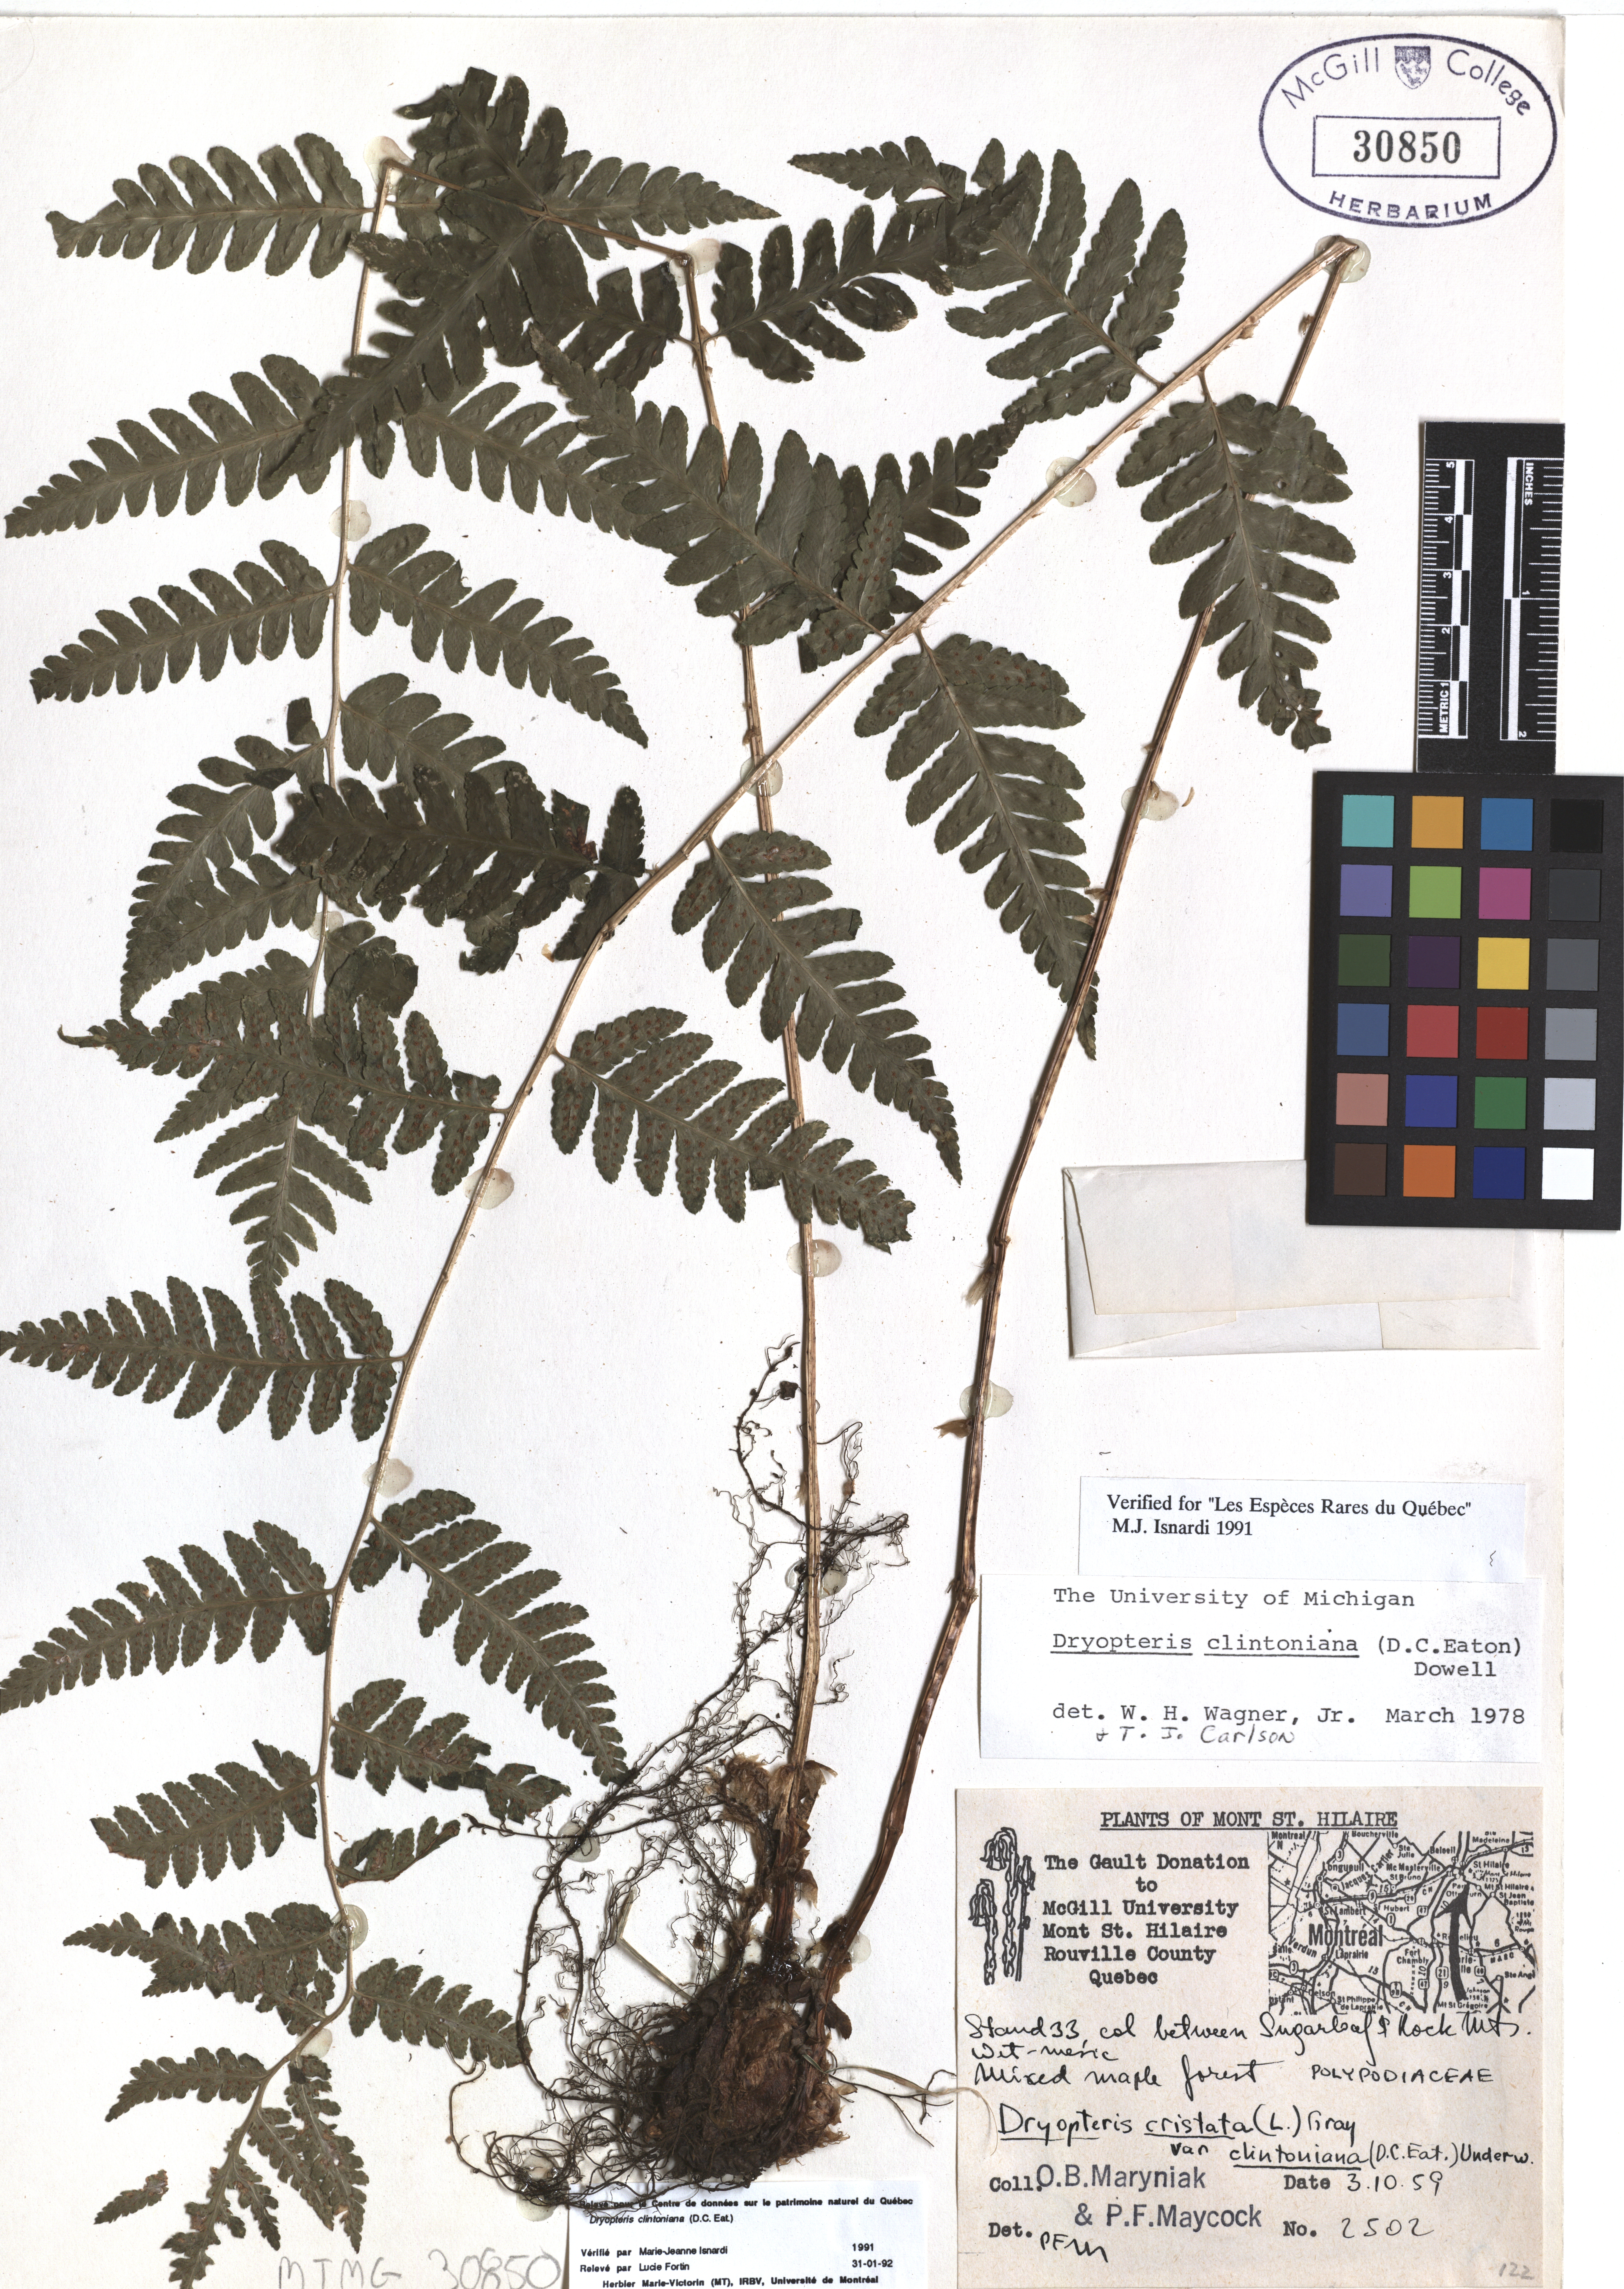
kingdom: Plantae
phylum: Tracheophyta
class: Polypodiopsida
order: Polypodiales
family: Dryopteridaceae
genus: Dryopteris
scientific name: Dryopteris clintoniana
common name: Clinton's wood fern
